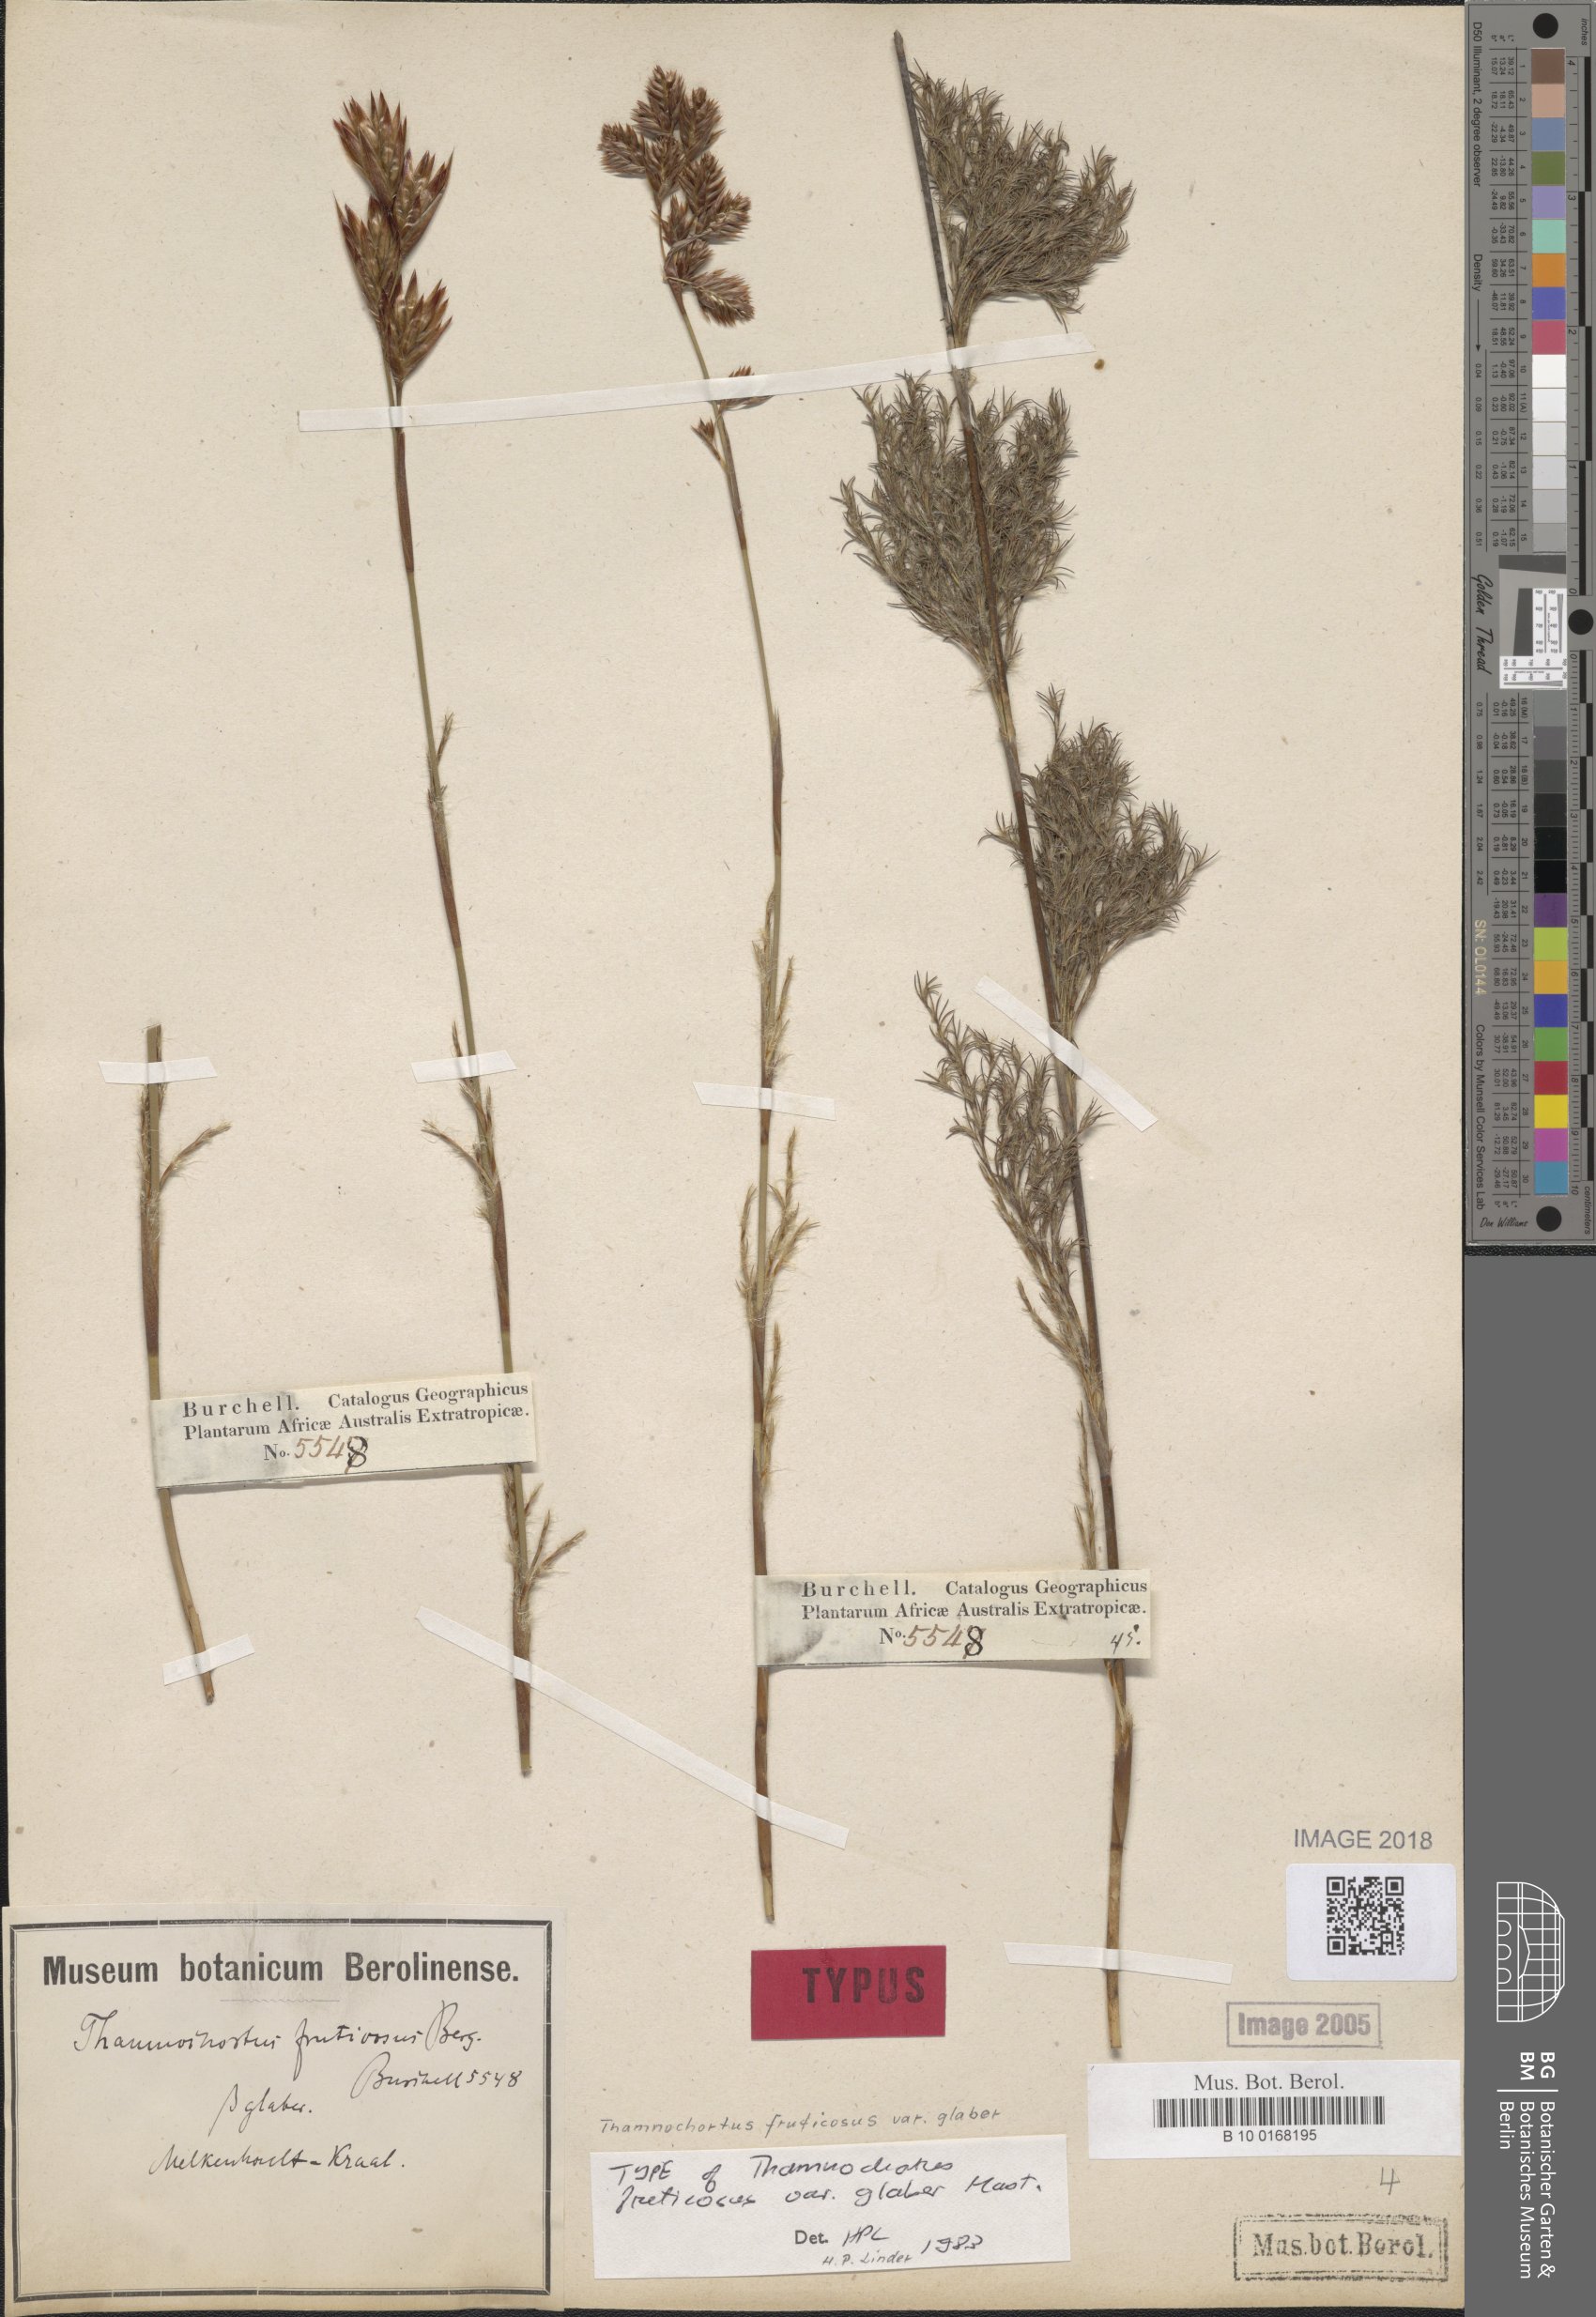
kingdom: Plantae
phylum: Tracheophyta
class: Liliopsida
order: Poales
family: Restionaceae
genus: Thamnochortus
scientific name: Thamnochortus glaber
